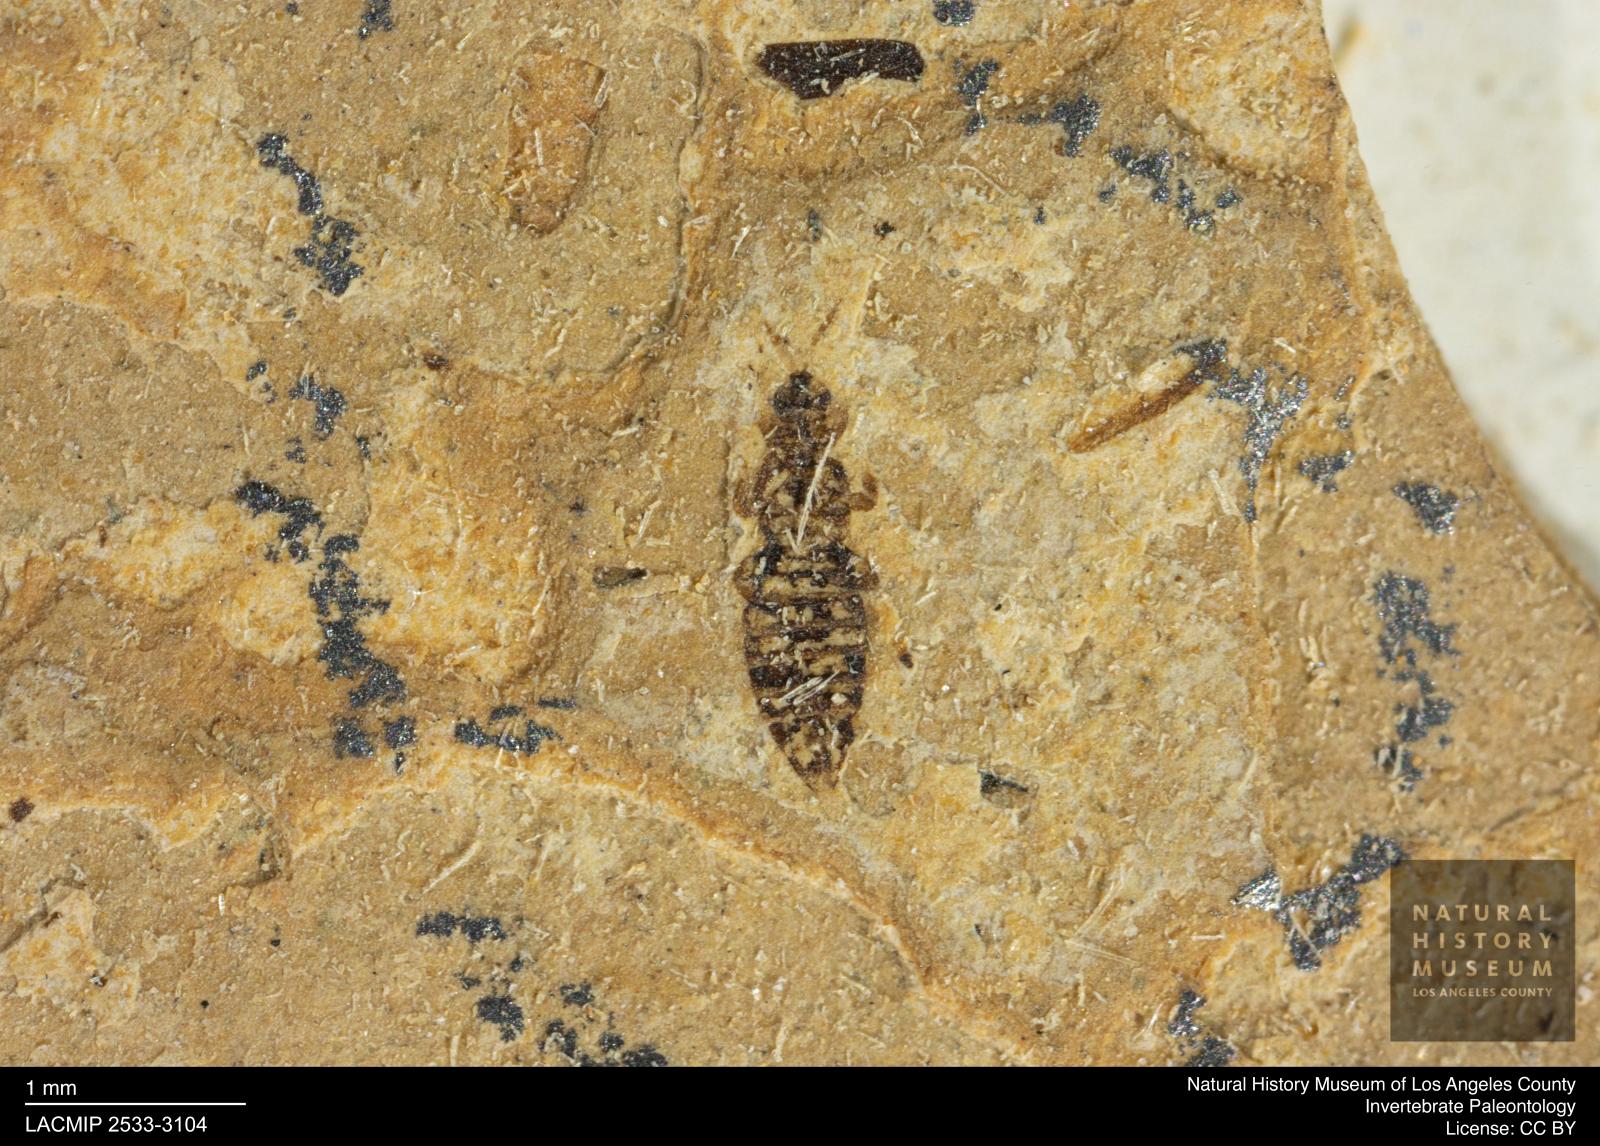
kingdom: Animalia
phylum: Arthropoda
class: Insecta
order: Thysanoptera
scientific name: Thysanoptera
